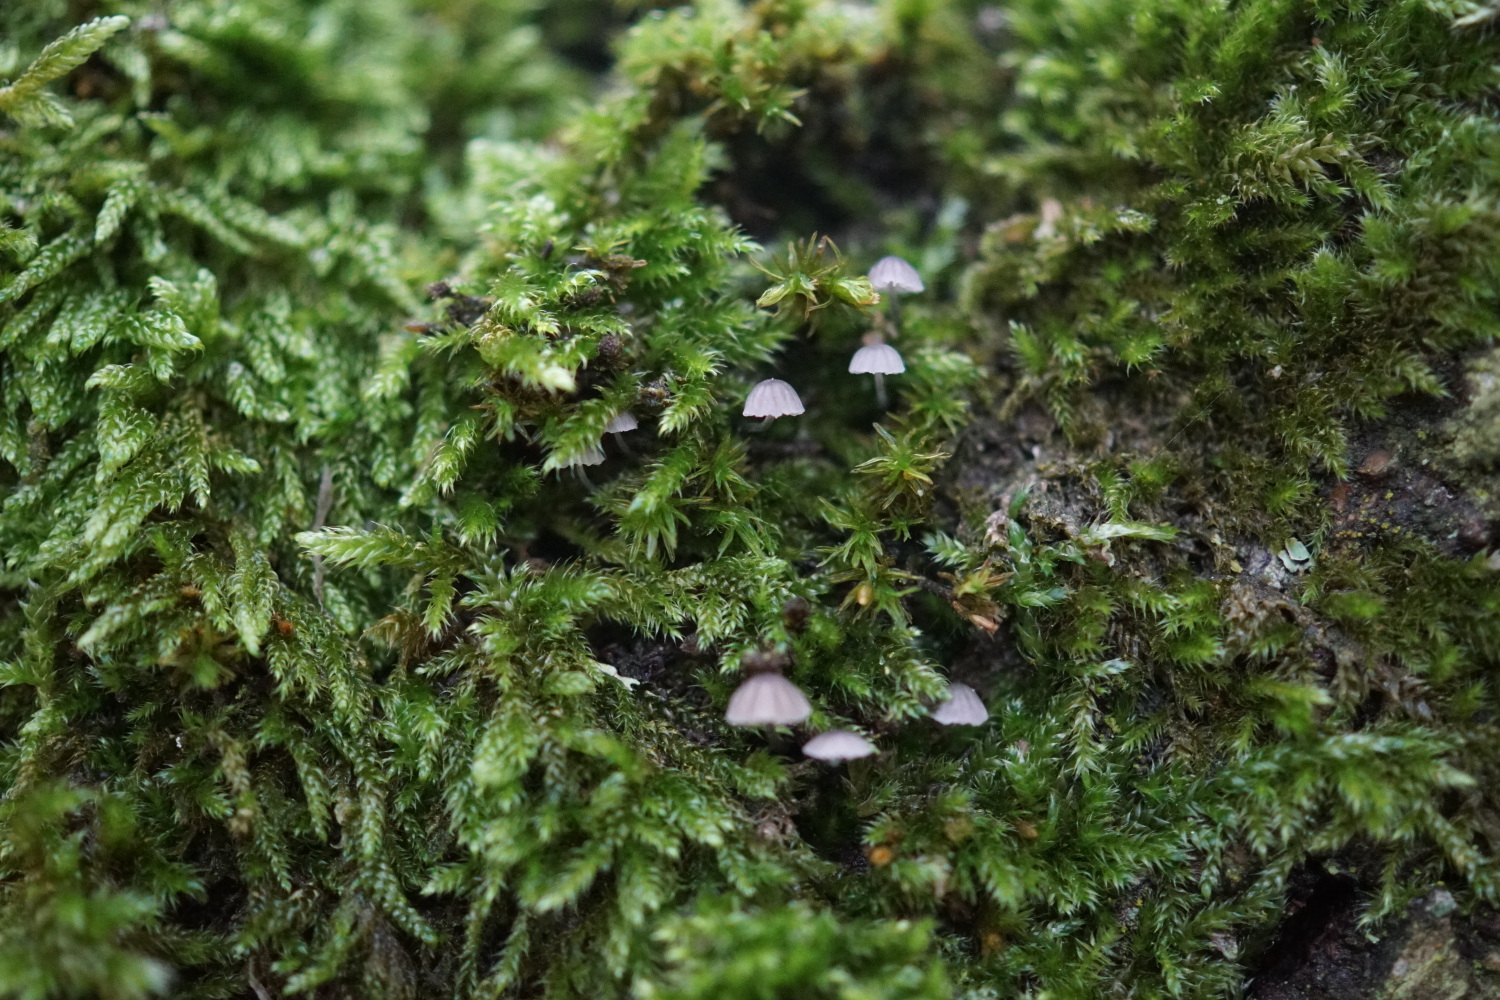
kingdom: Fungi
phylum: Basidiomycota
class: Agaricomycetes
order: Agaricales
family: Mycenaceae
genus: Mycena
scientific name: Mycena pseudocorticola
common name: gråblå bark-huesvamp
